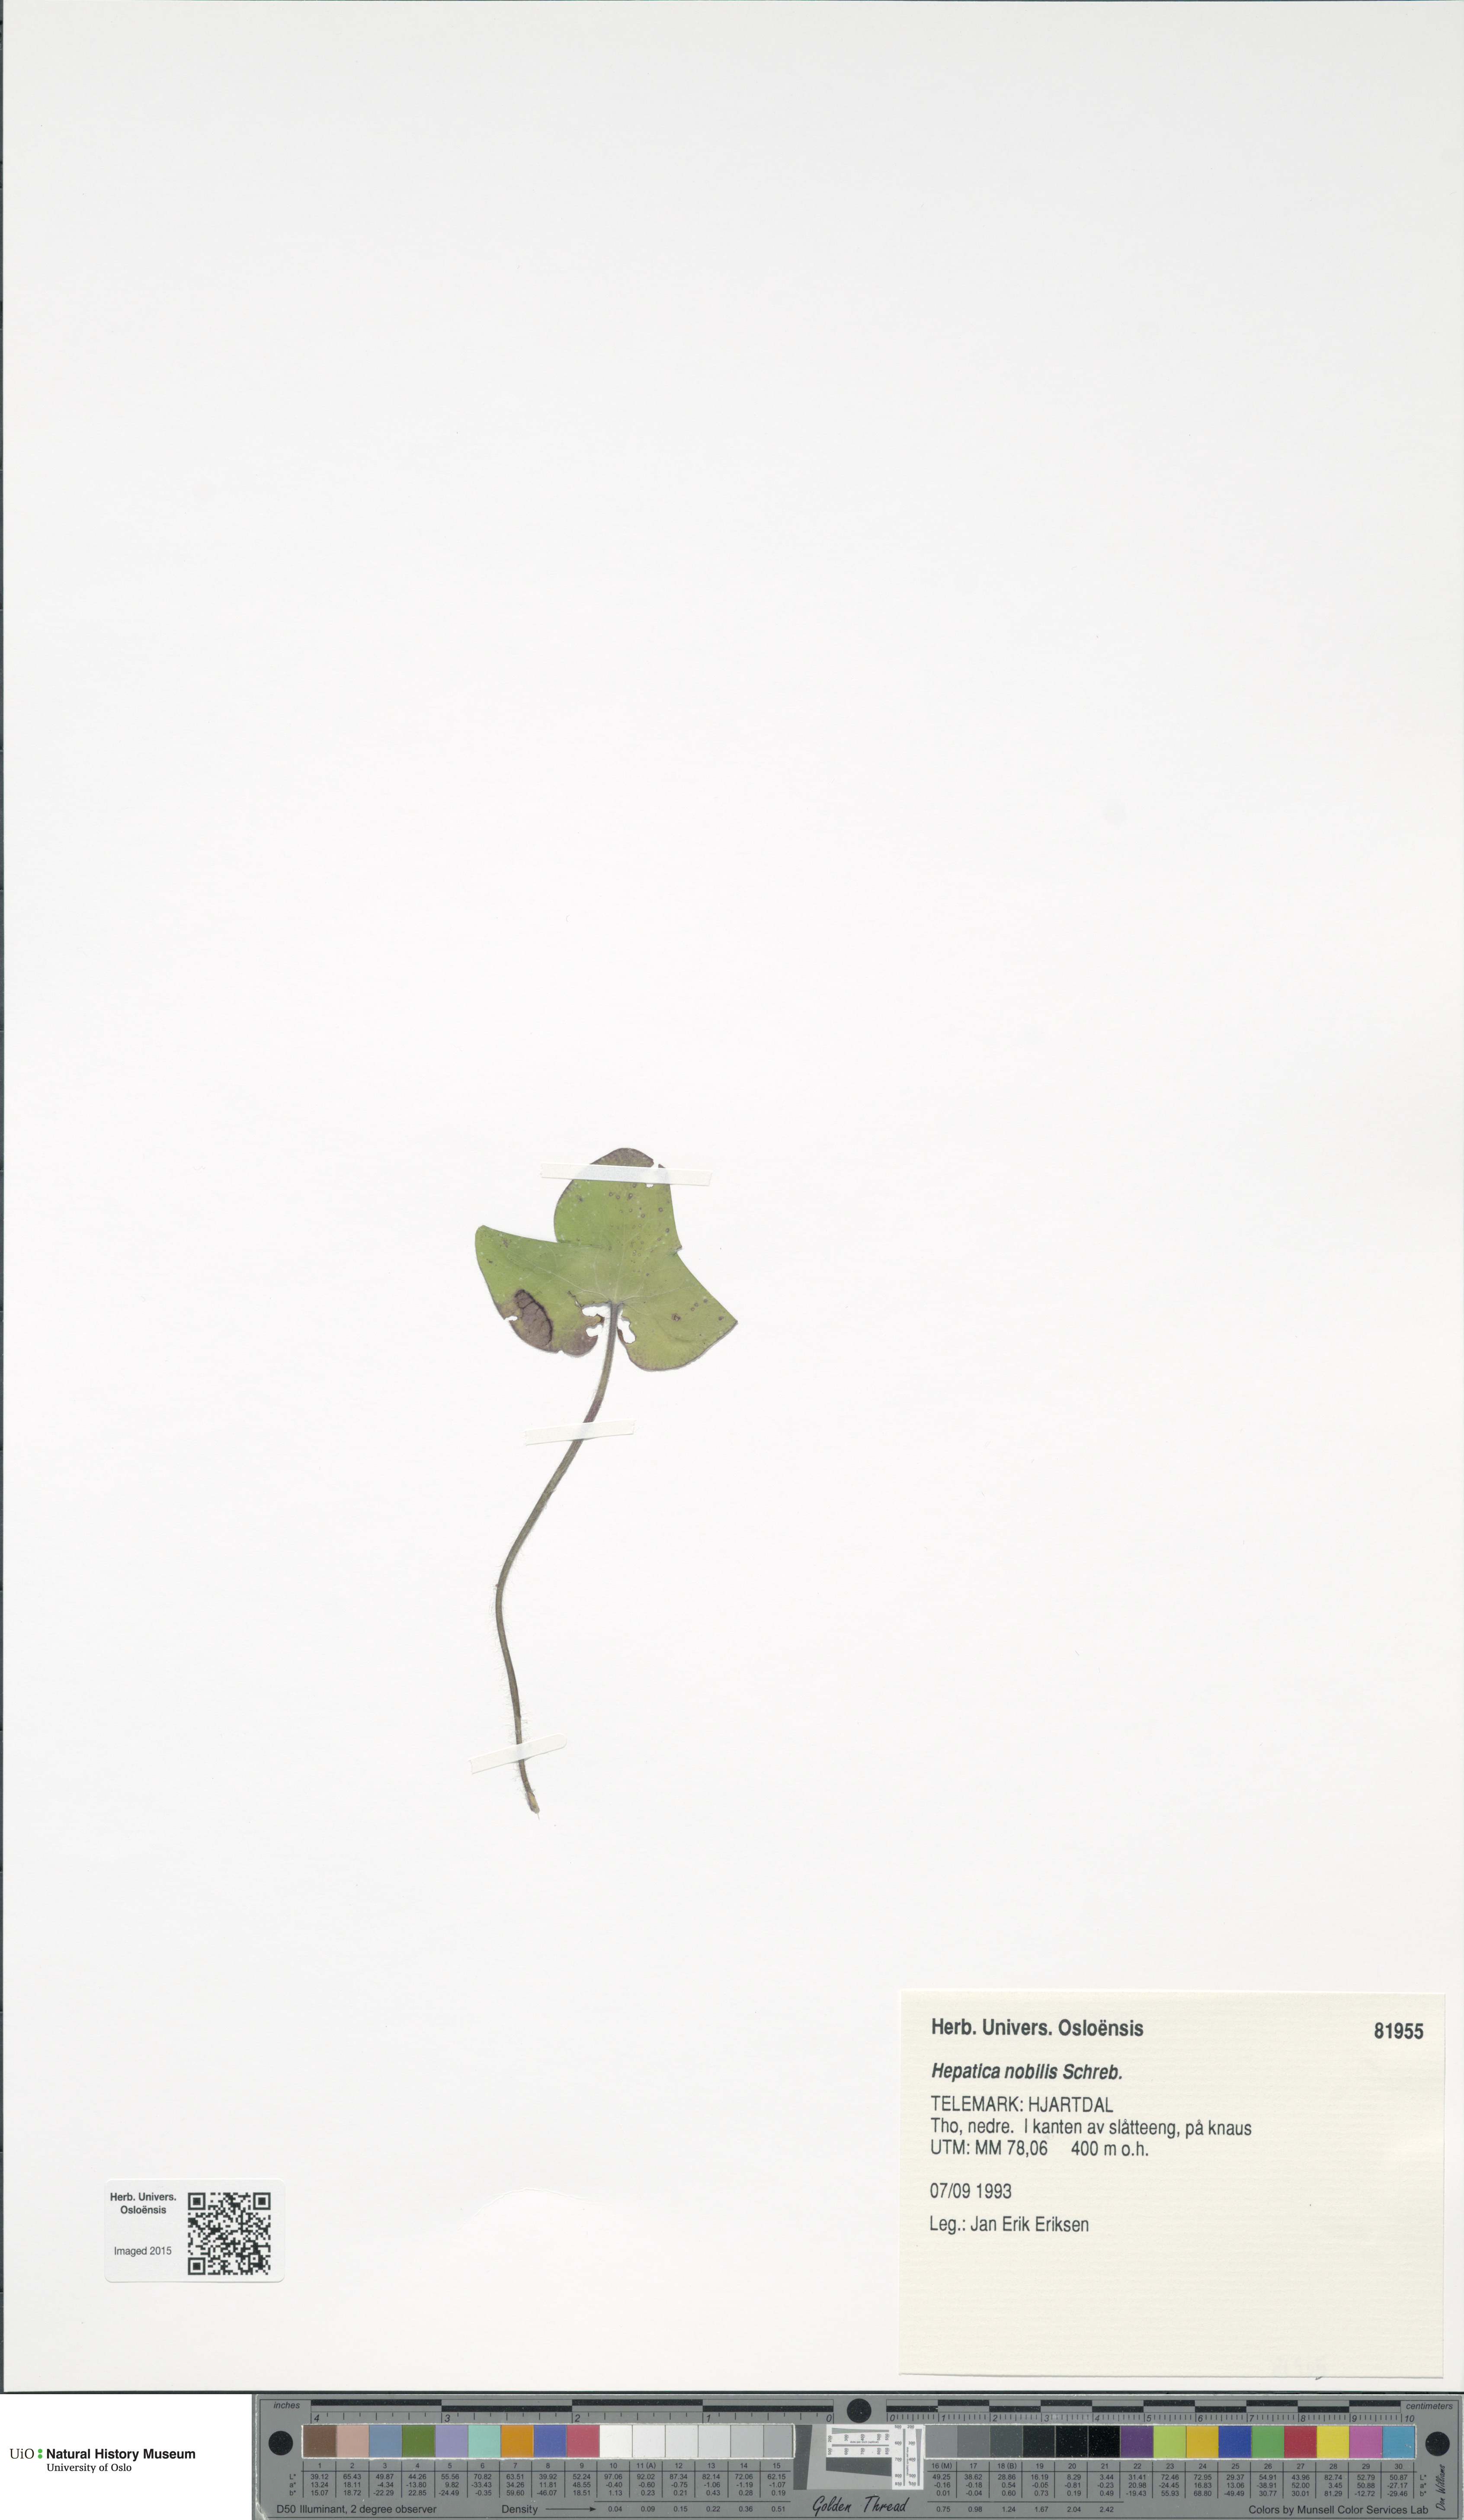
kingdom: Plantae
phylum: Tracheophyta
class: Magnoliopsida
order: Ranunculales
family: Ranunculaceae
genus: Hepatica
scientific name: Hepatica nobilis
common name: Liverleaf
